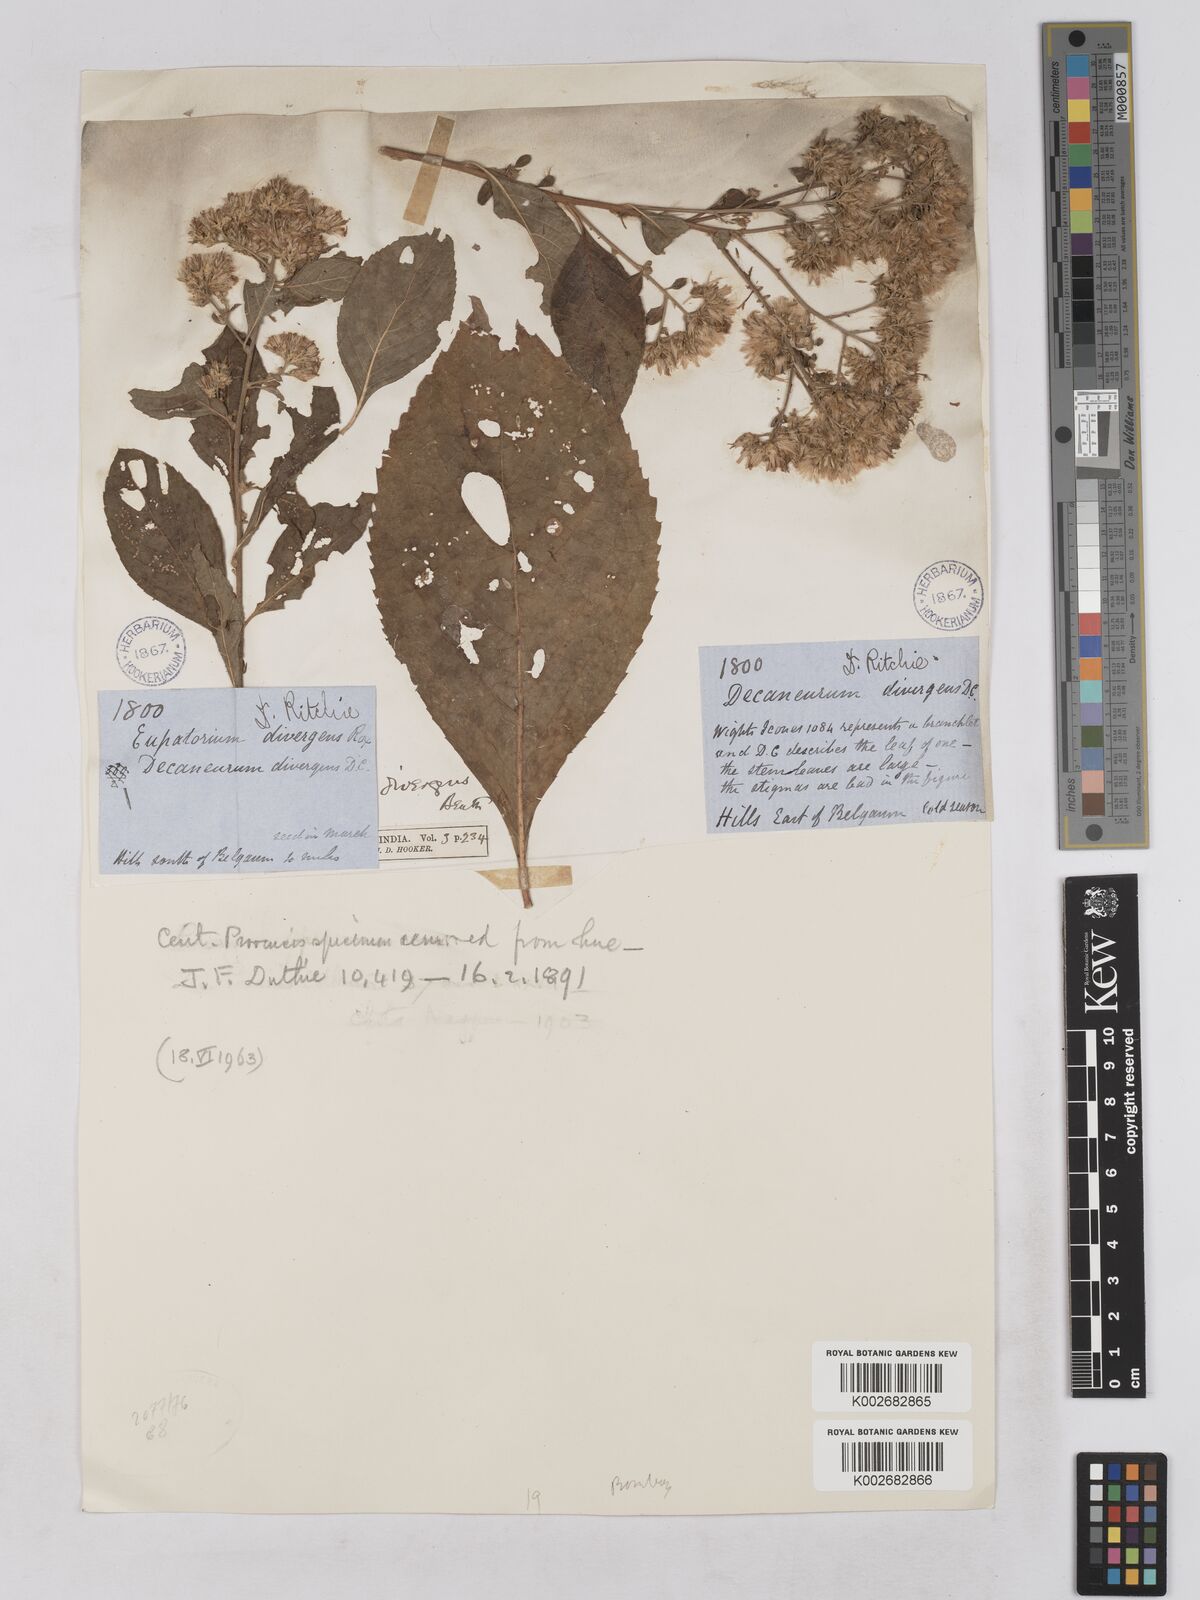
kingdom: Plantae
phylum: Tracheophyta
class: Magnoliopsida
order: Asterales
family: Asteraceae
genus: Acilepis
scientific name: Acilepis divergens
